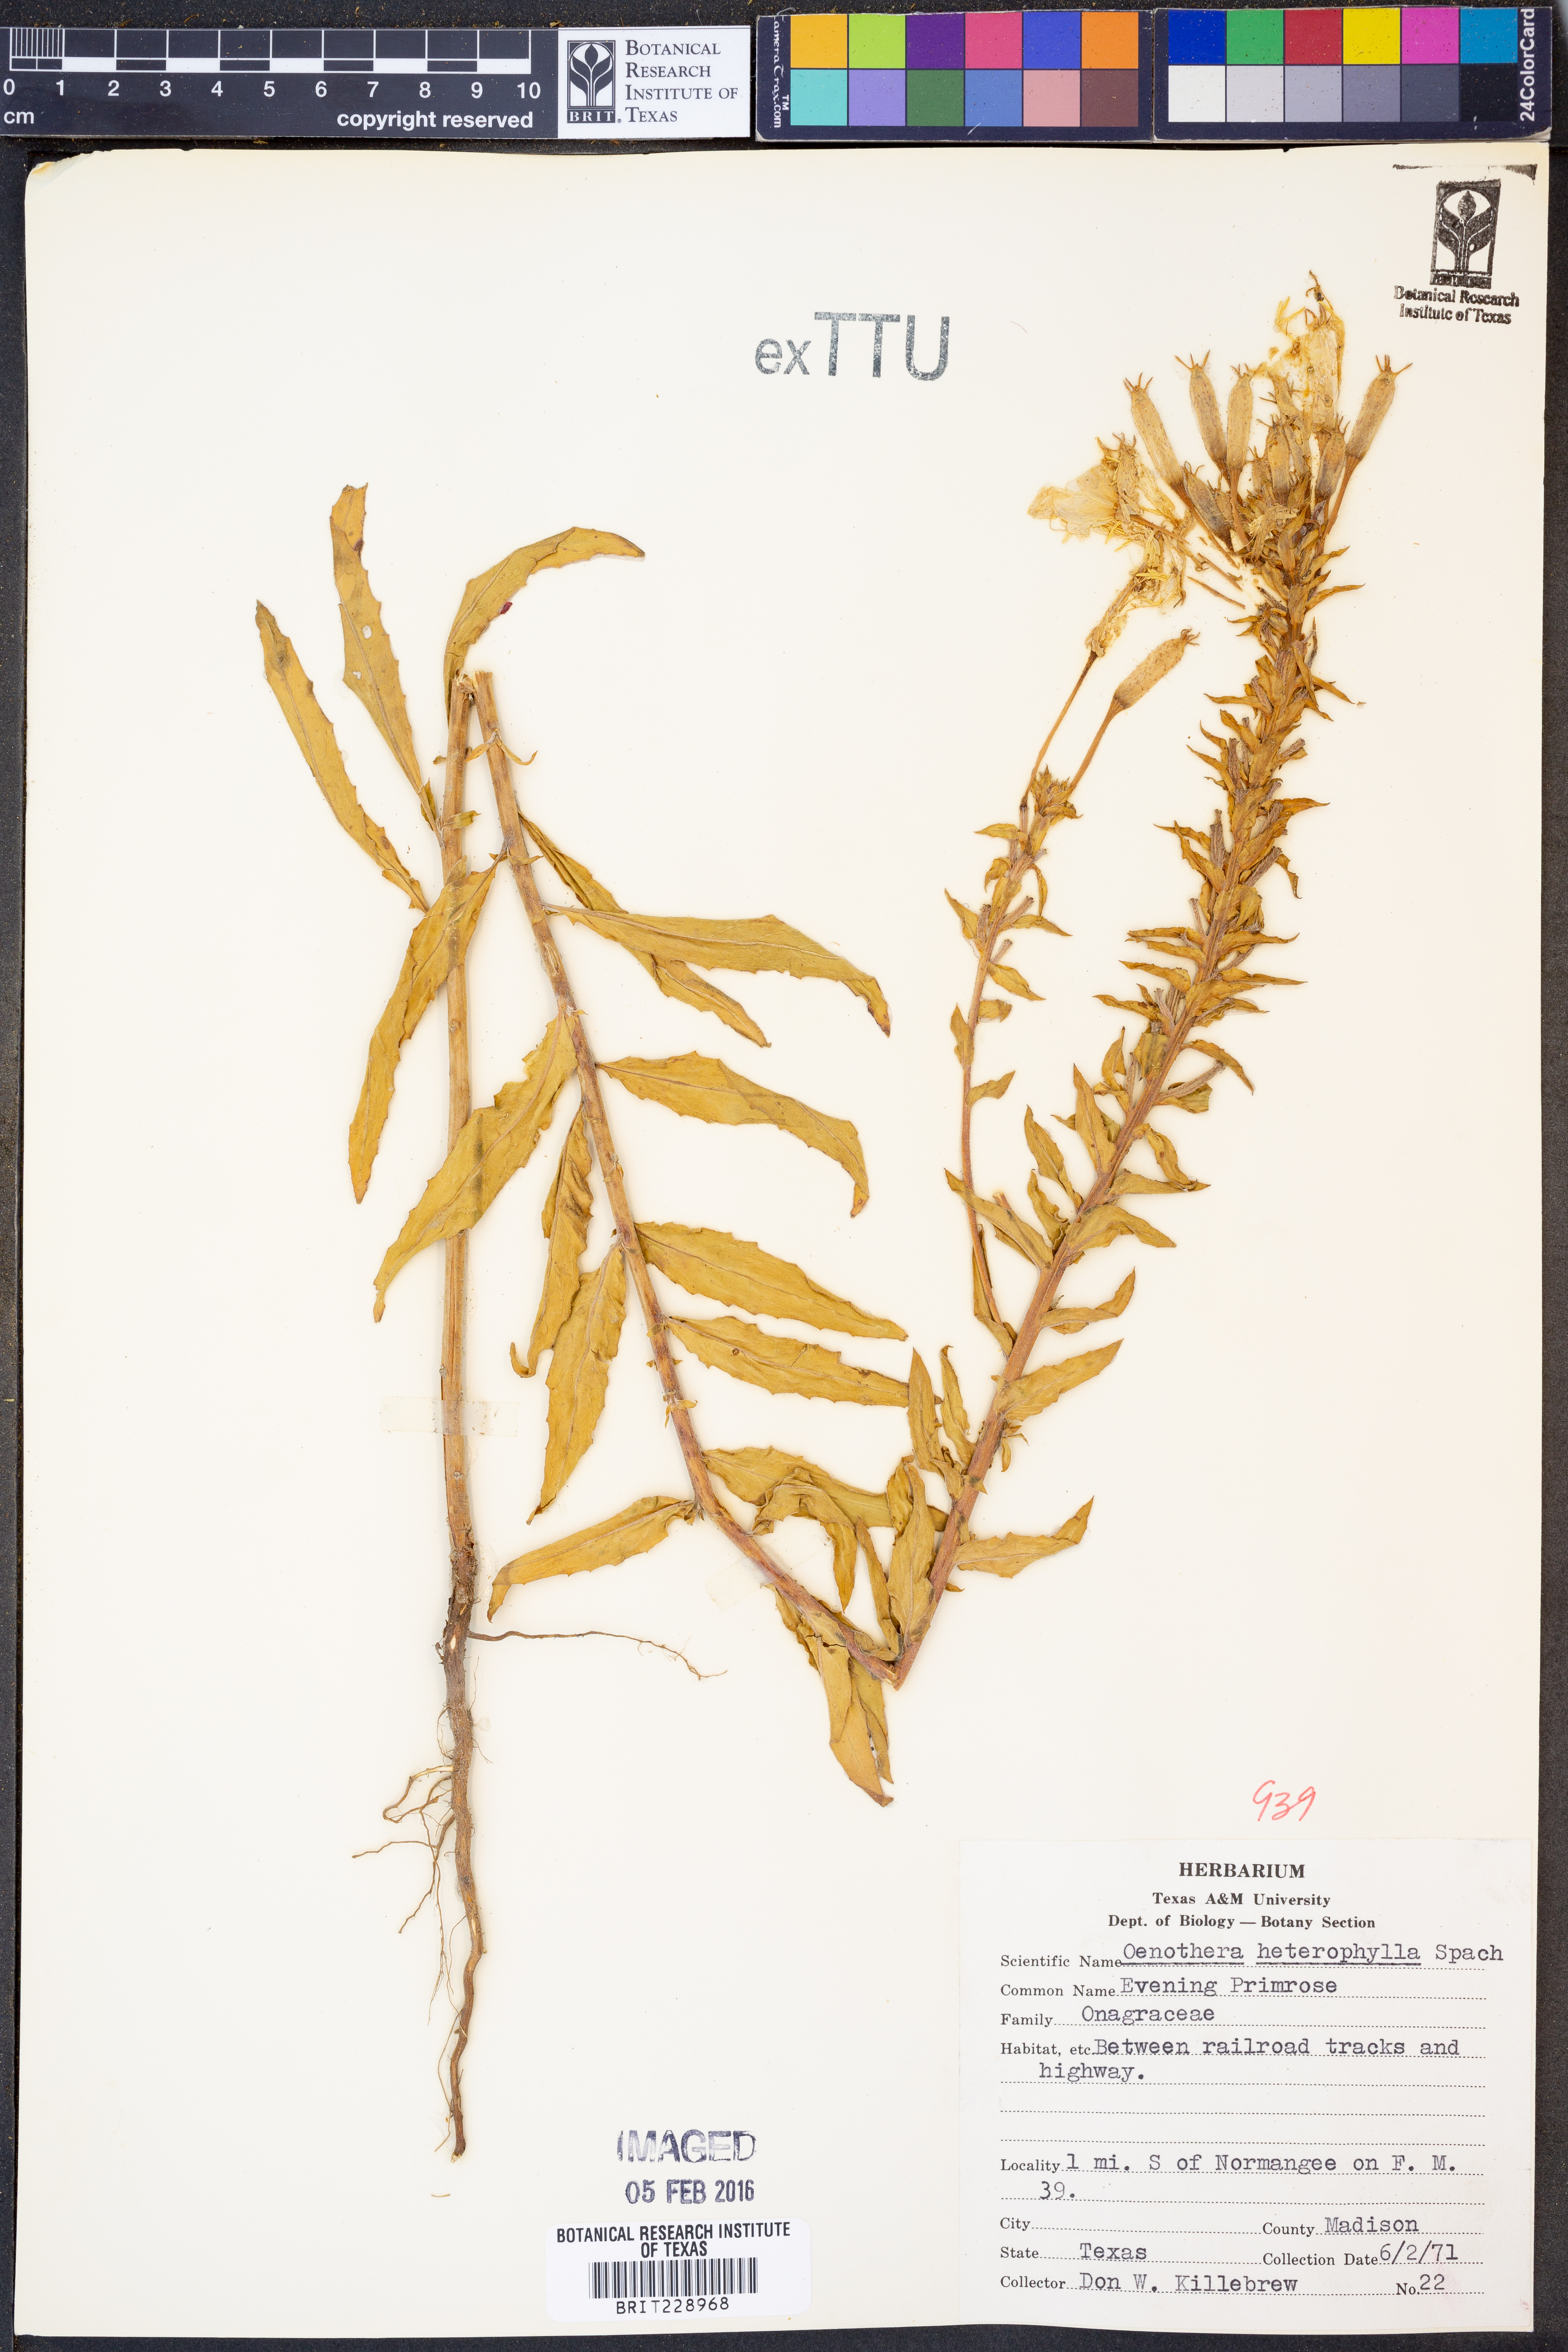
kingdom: Plantae
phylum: Tracheophyta
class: Magnoliopsida
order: Myrtales
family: Onagraceae
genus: Camissonia
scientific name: Camissonia dentata
